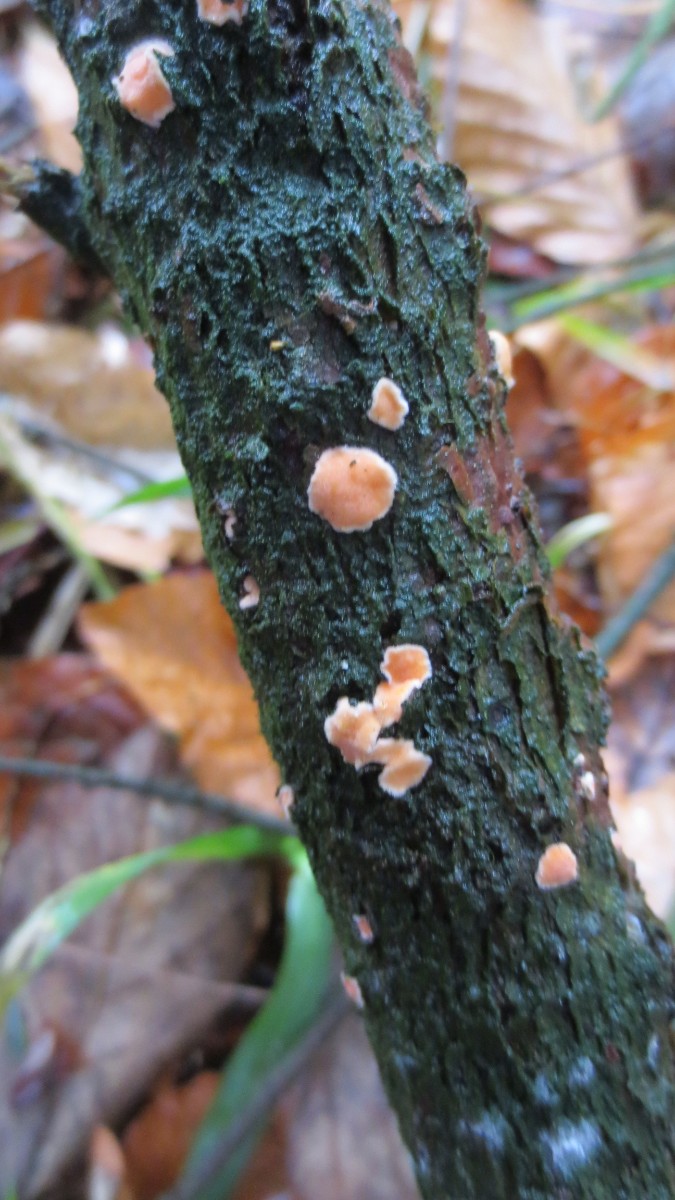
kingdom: Fungi
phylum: Basidiomycota
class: Agaricomycetes
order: Russulales
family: Stereaceae
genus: Aleurodiscus
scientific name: Aleurodiscus amorphus
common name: orange skiveskorpe
